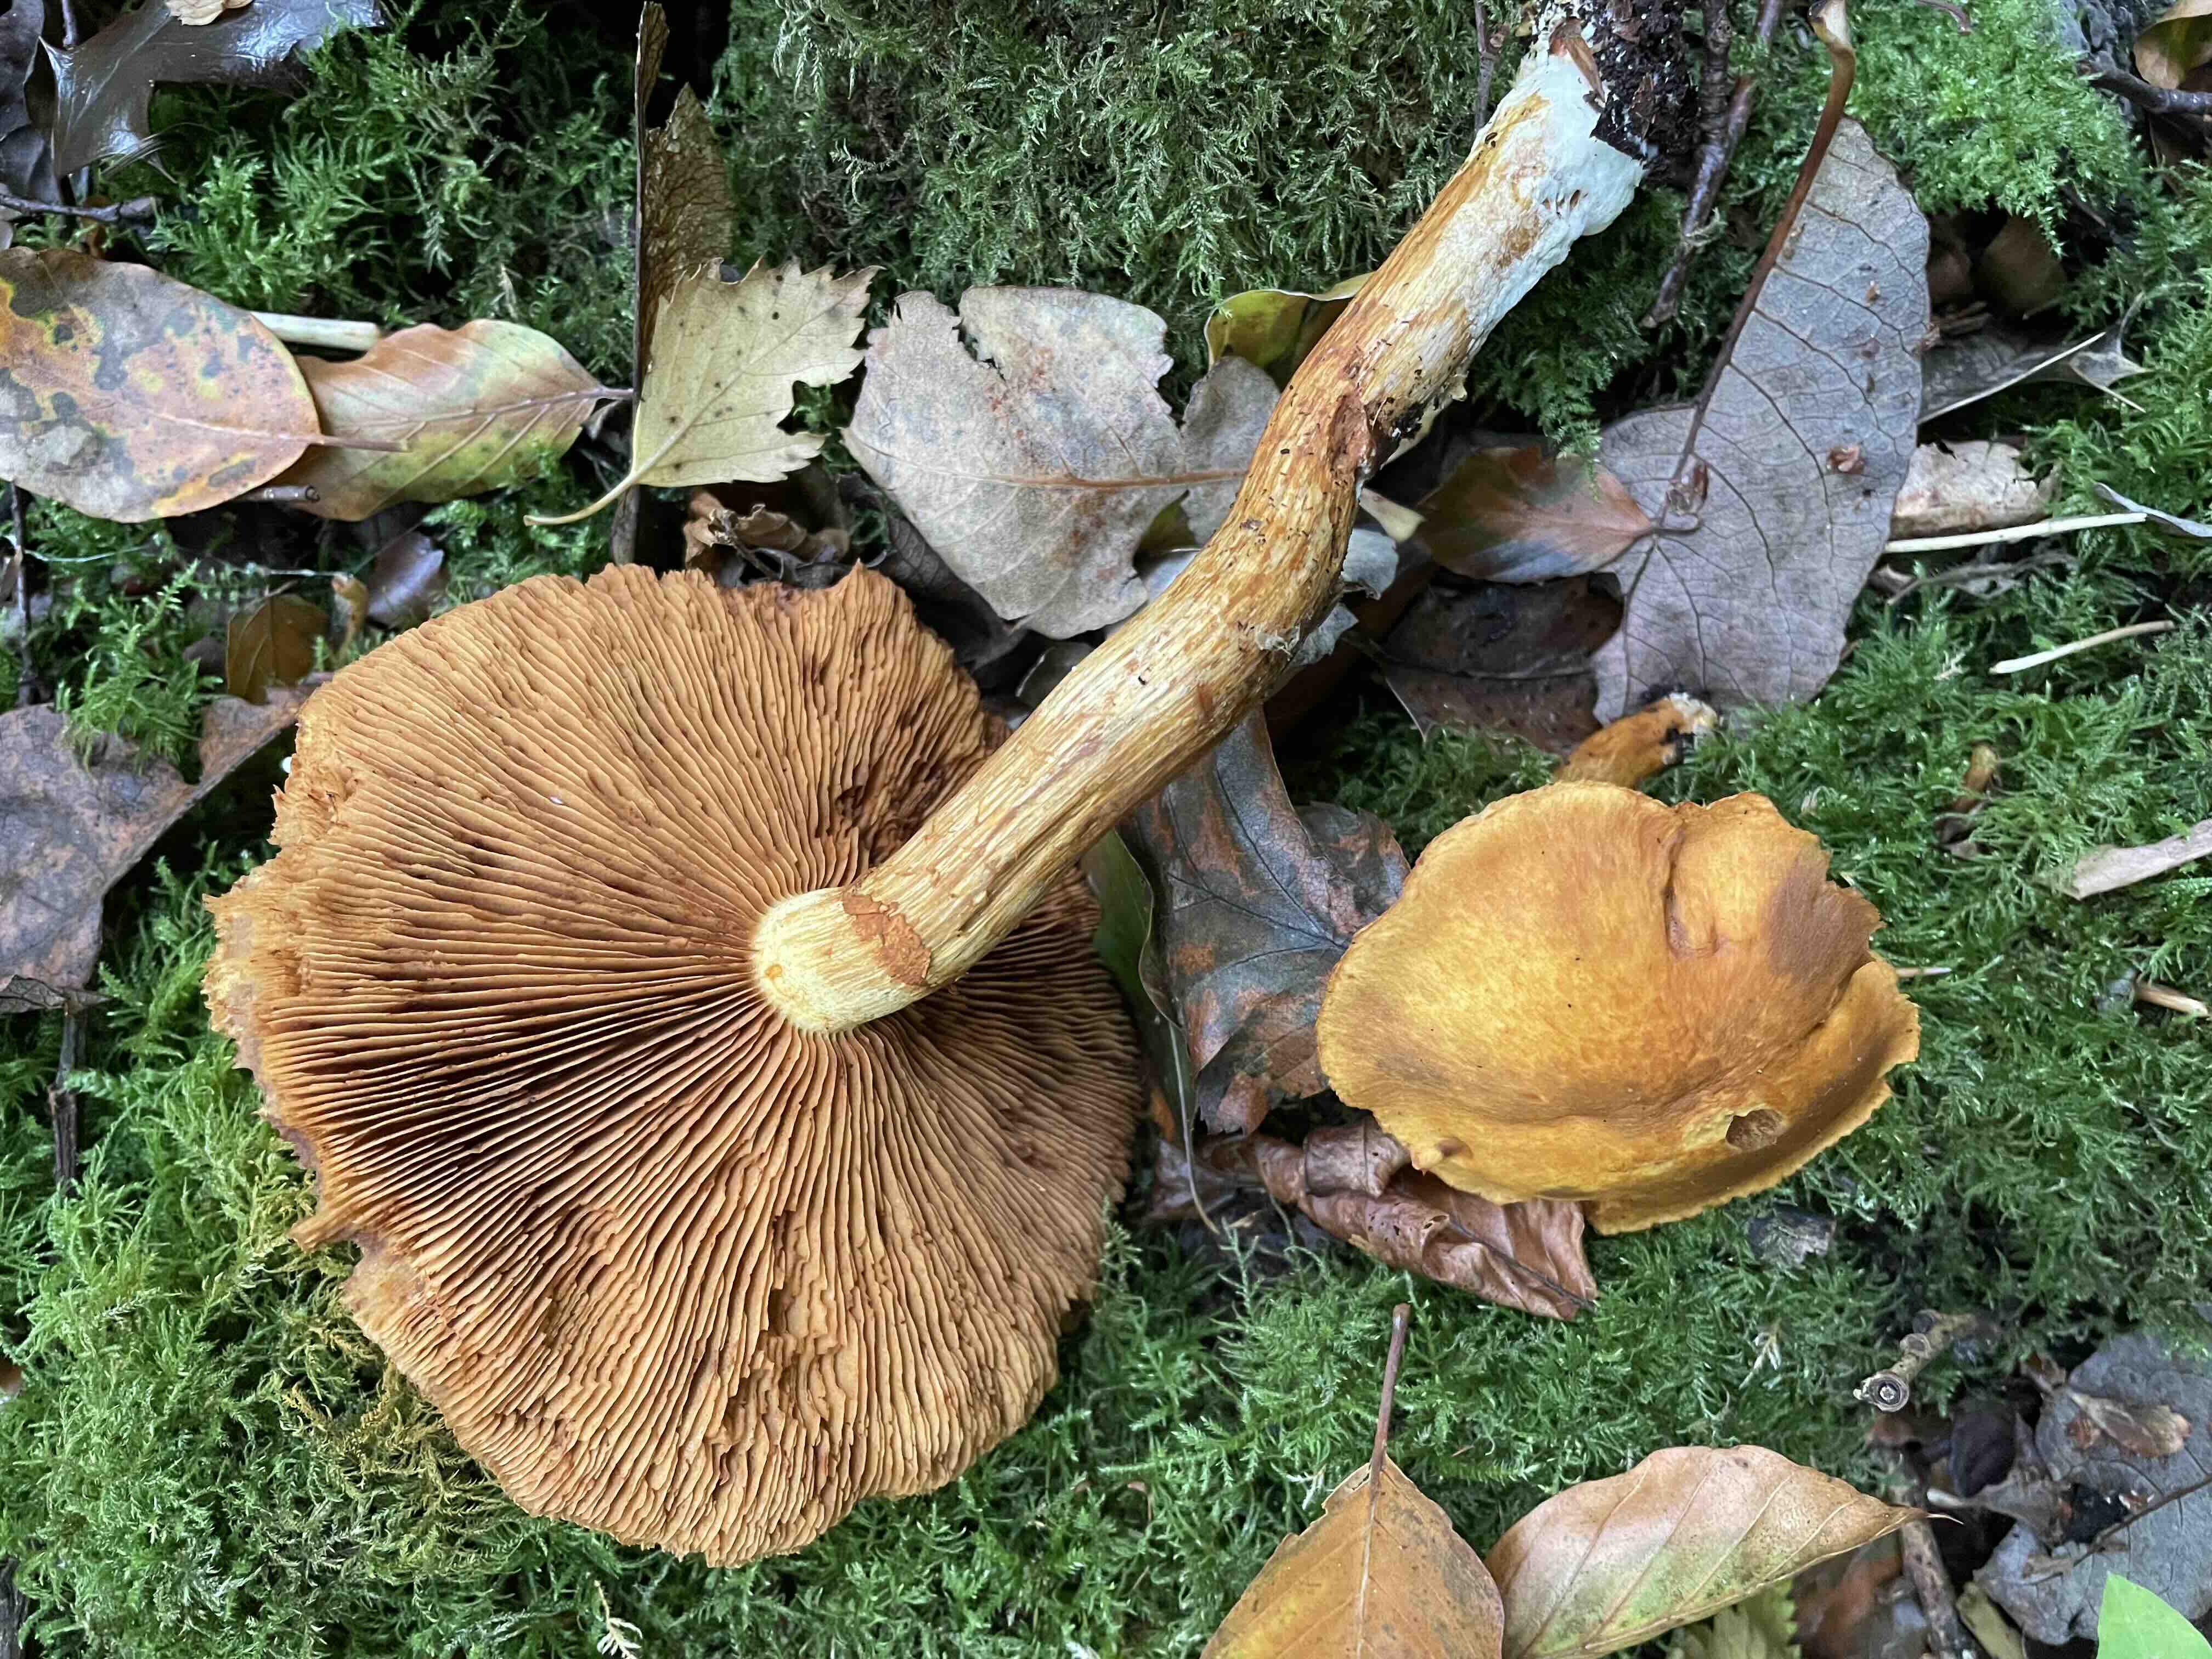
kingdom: Fungi
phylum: Basidiomycota
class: Agaricomycetes
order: Agaricales
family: Hymenogastraceae
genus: Gymnopilus
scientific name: Gymnopilus spectabilis
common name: fibret flammehat
